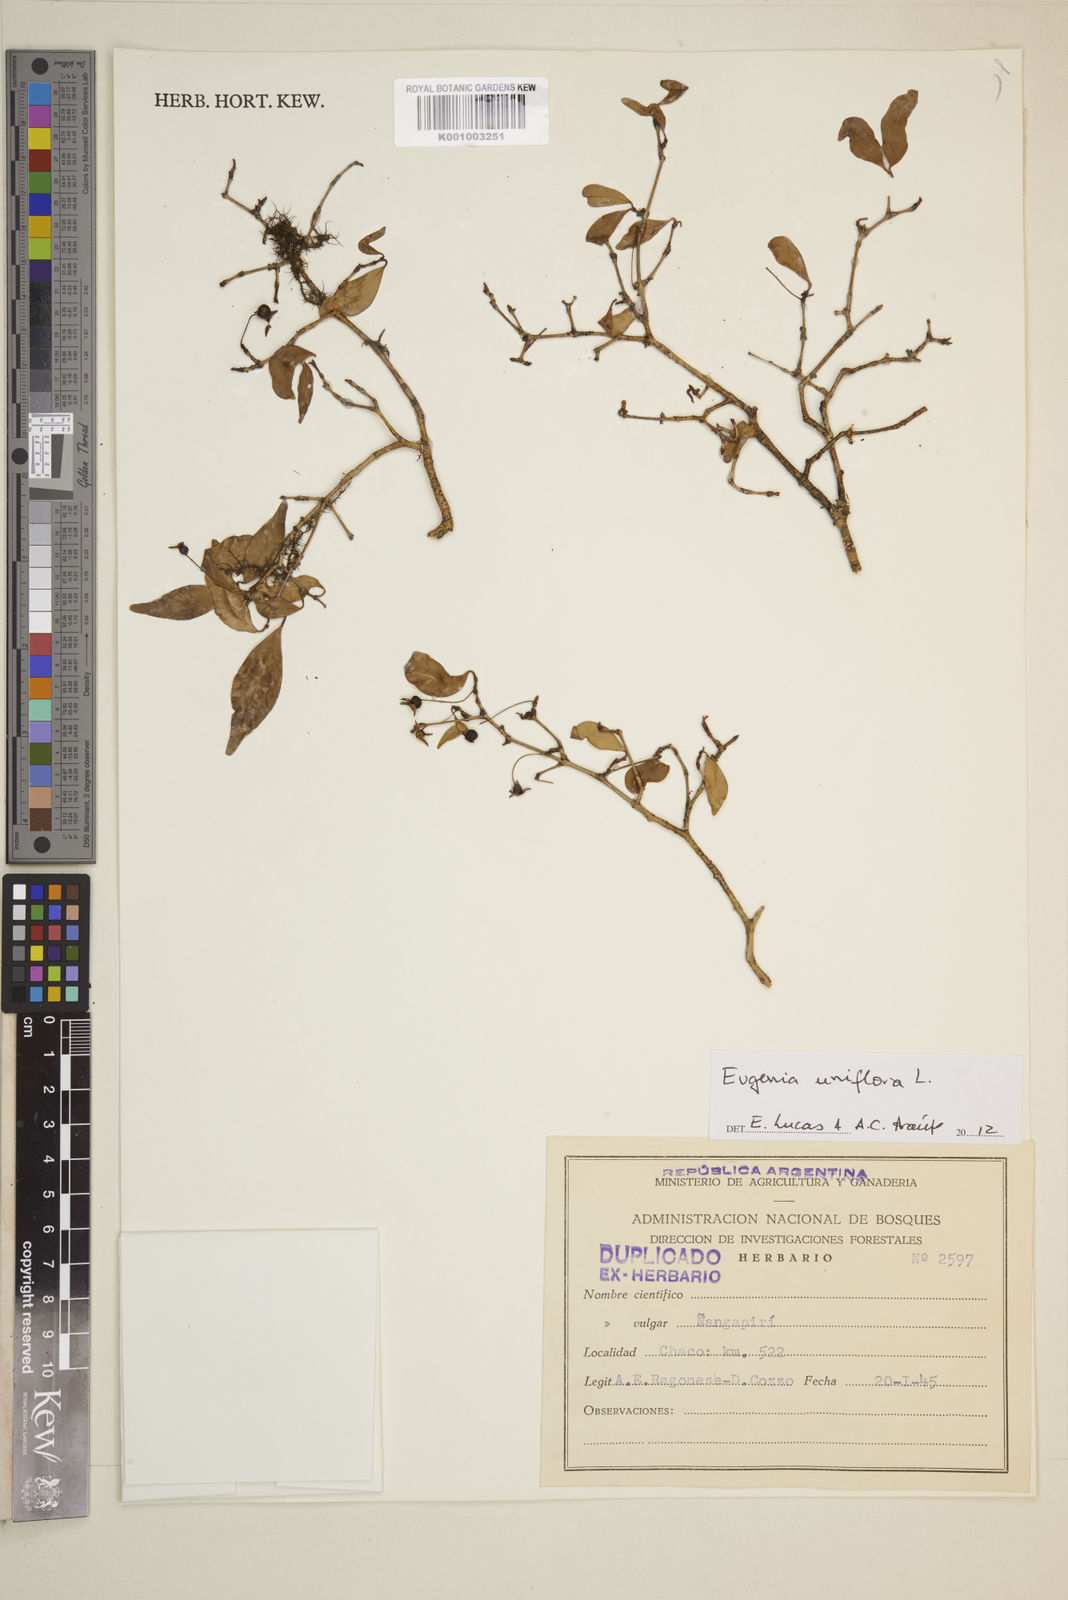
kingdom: Plantae
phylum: Tracheophyta
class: Magnoliopsida
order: Myrtales
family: Myrtaceae
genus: Eugenia
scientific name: Eugenia uniflora
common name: Surinam cherry
